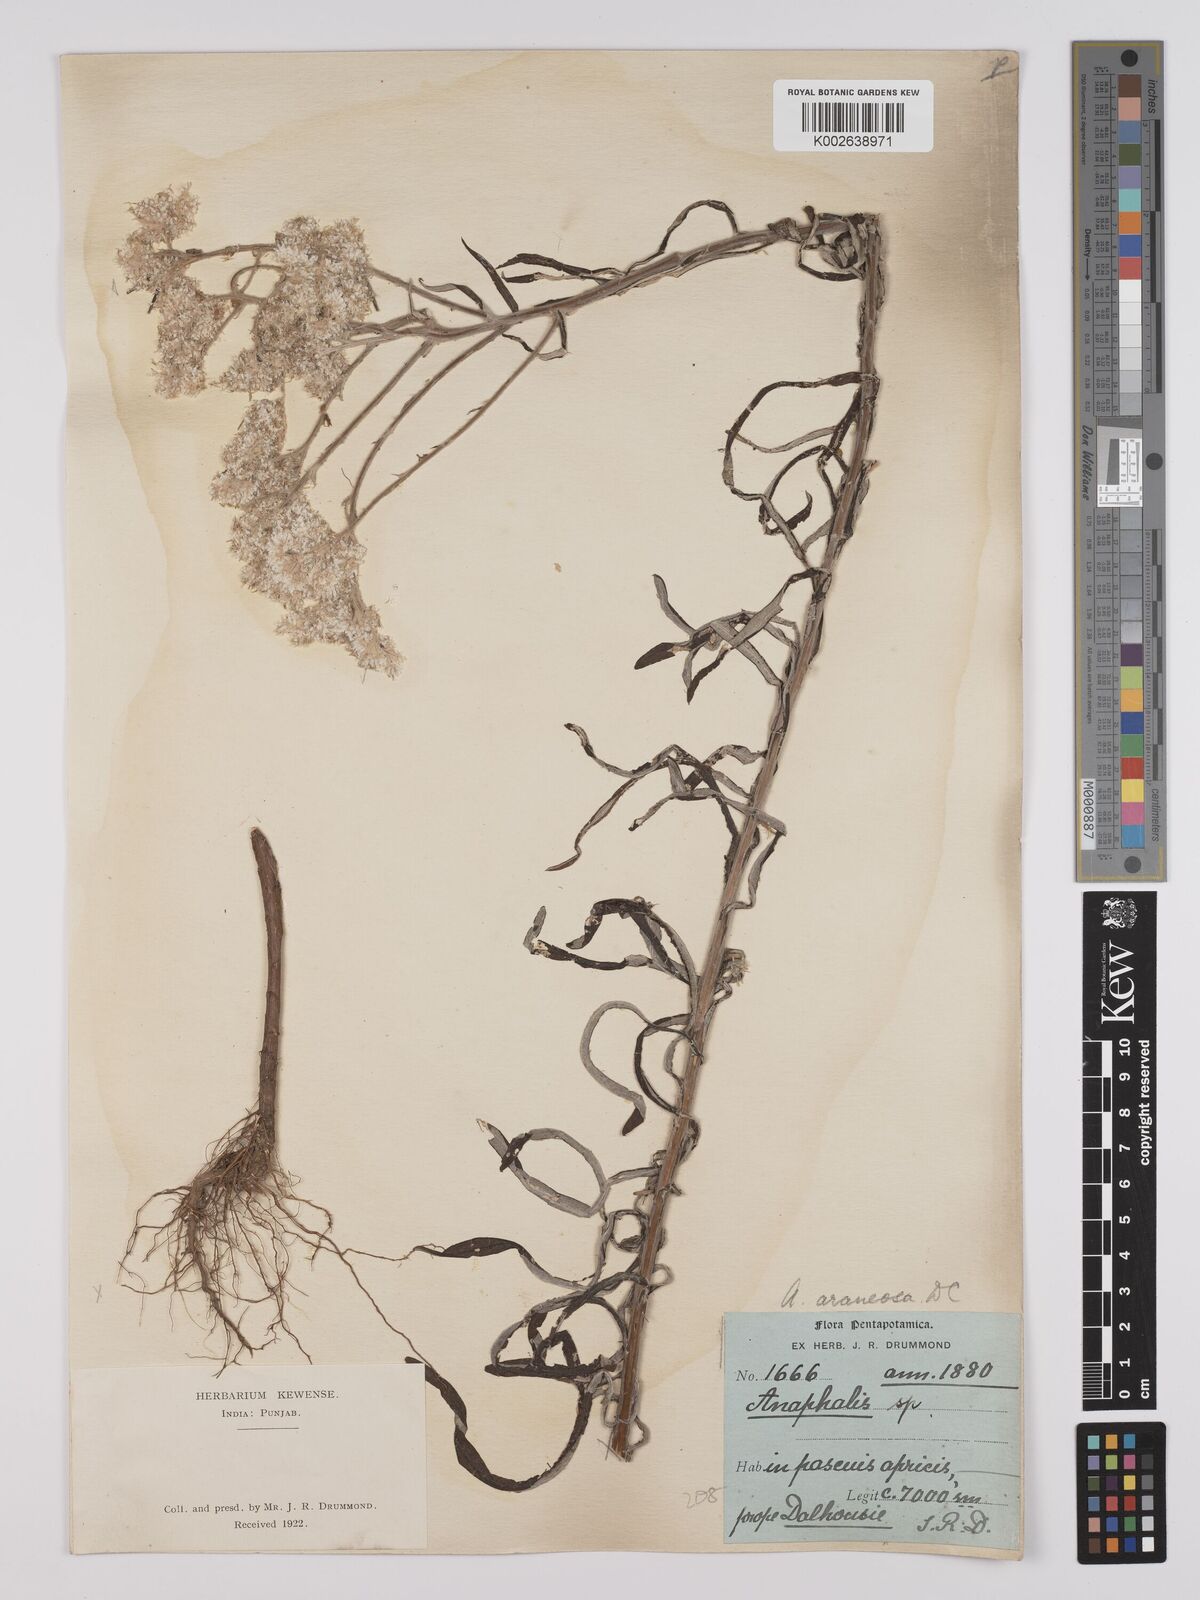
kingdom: Plantae
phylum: Tracheophyta
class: Magnoliopsida
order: Asterales
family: Asteraceae
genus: Anaphalis
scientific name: Anaphalis busua
